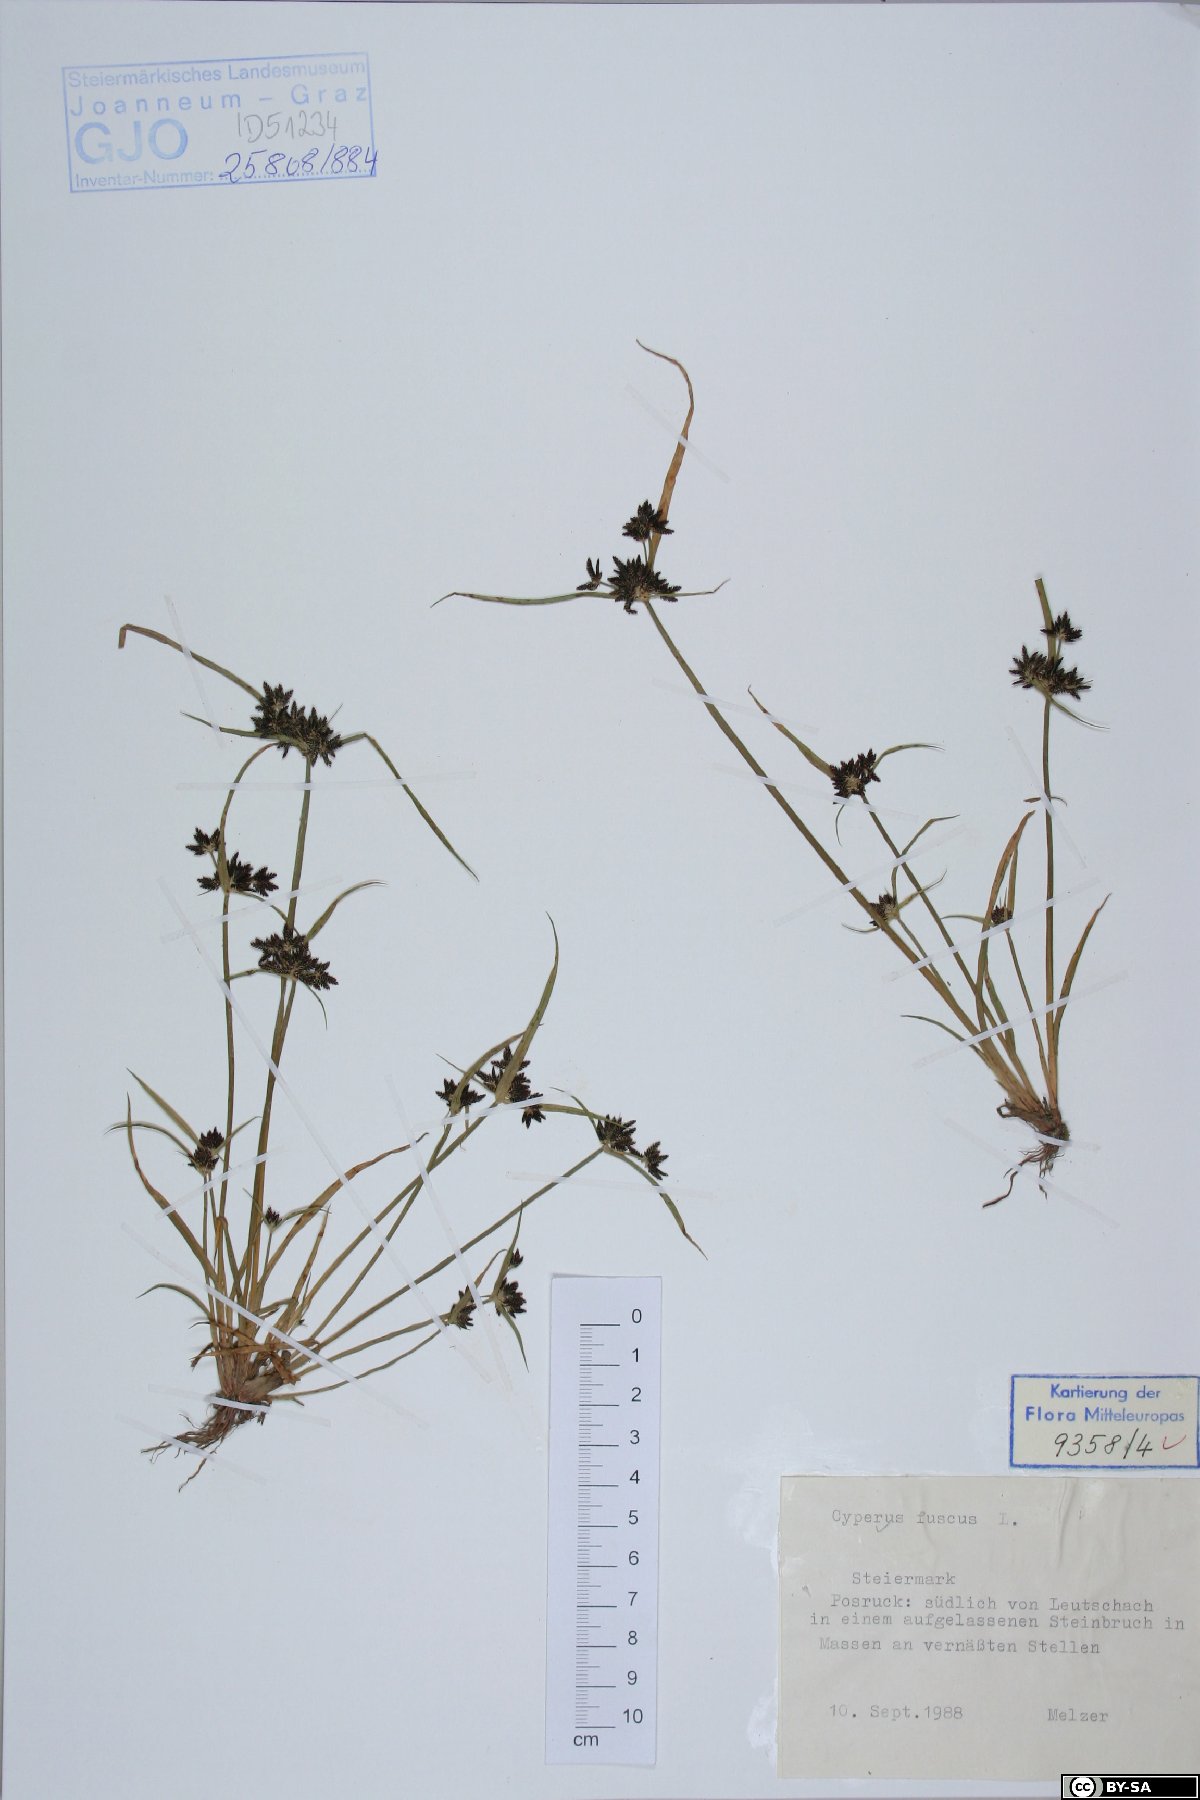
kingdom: Plantae
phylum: Tracheophyta
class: Liliopsida
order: Poales
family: Cyperaceae
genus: Cyperus
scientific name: Cyperus fuscus
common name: Brown galingale
